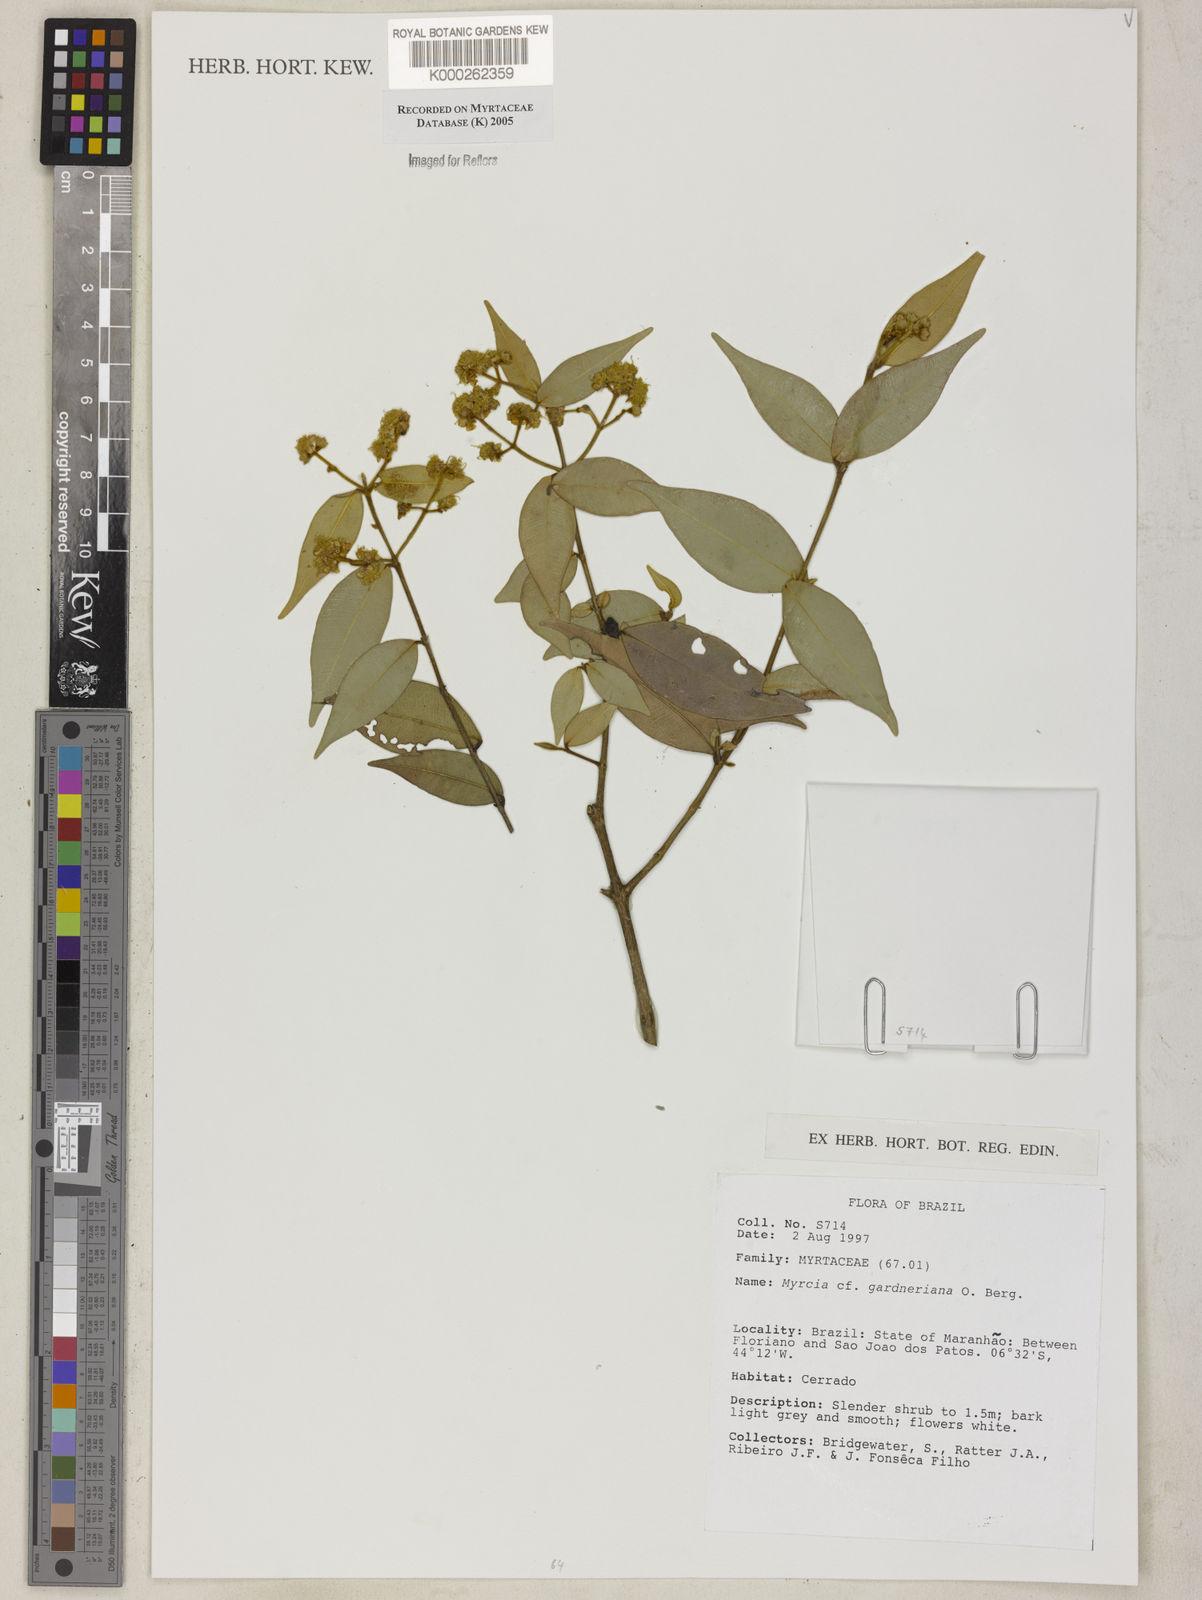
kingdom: Plantae
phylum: Tracheophyta
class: Magnoliopsida
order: Myrtales
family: Myrtaceae
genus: Myrcia
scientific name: Myrcia splendens
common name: Surinam cherry
